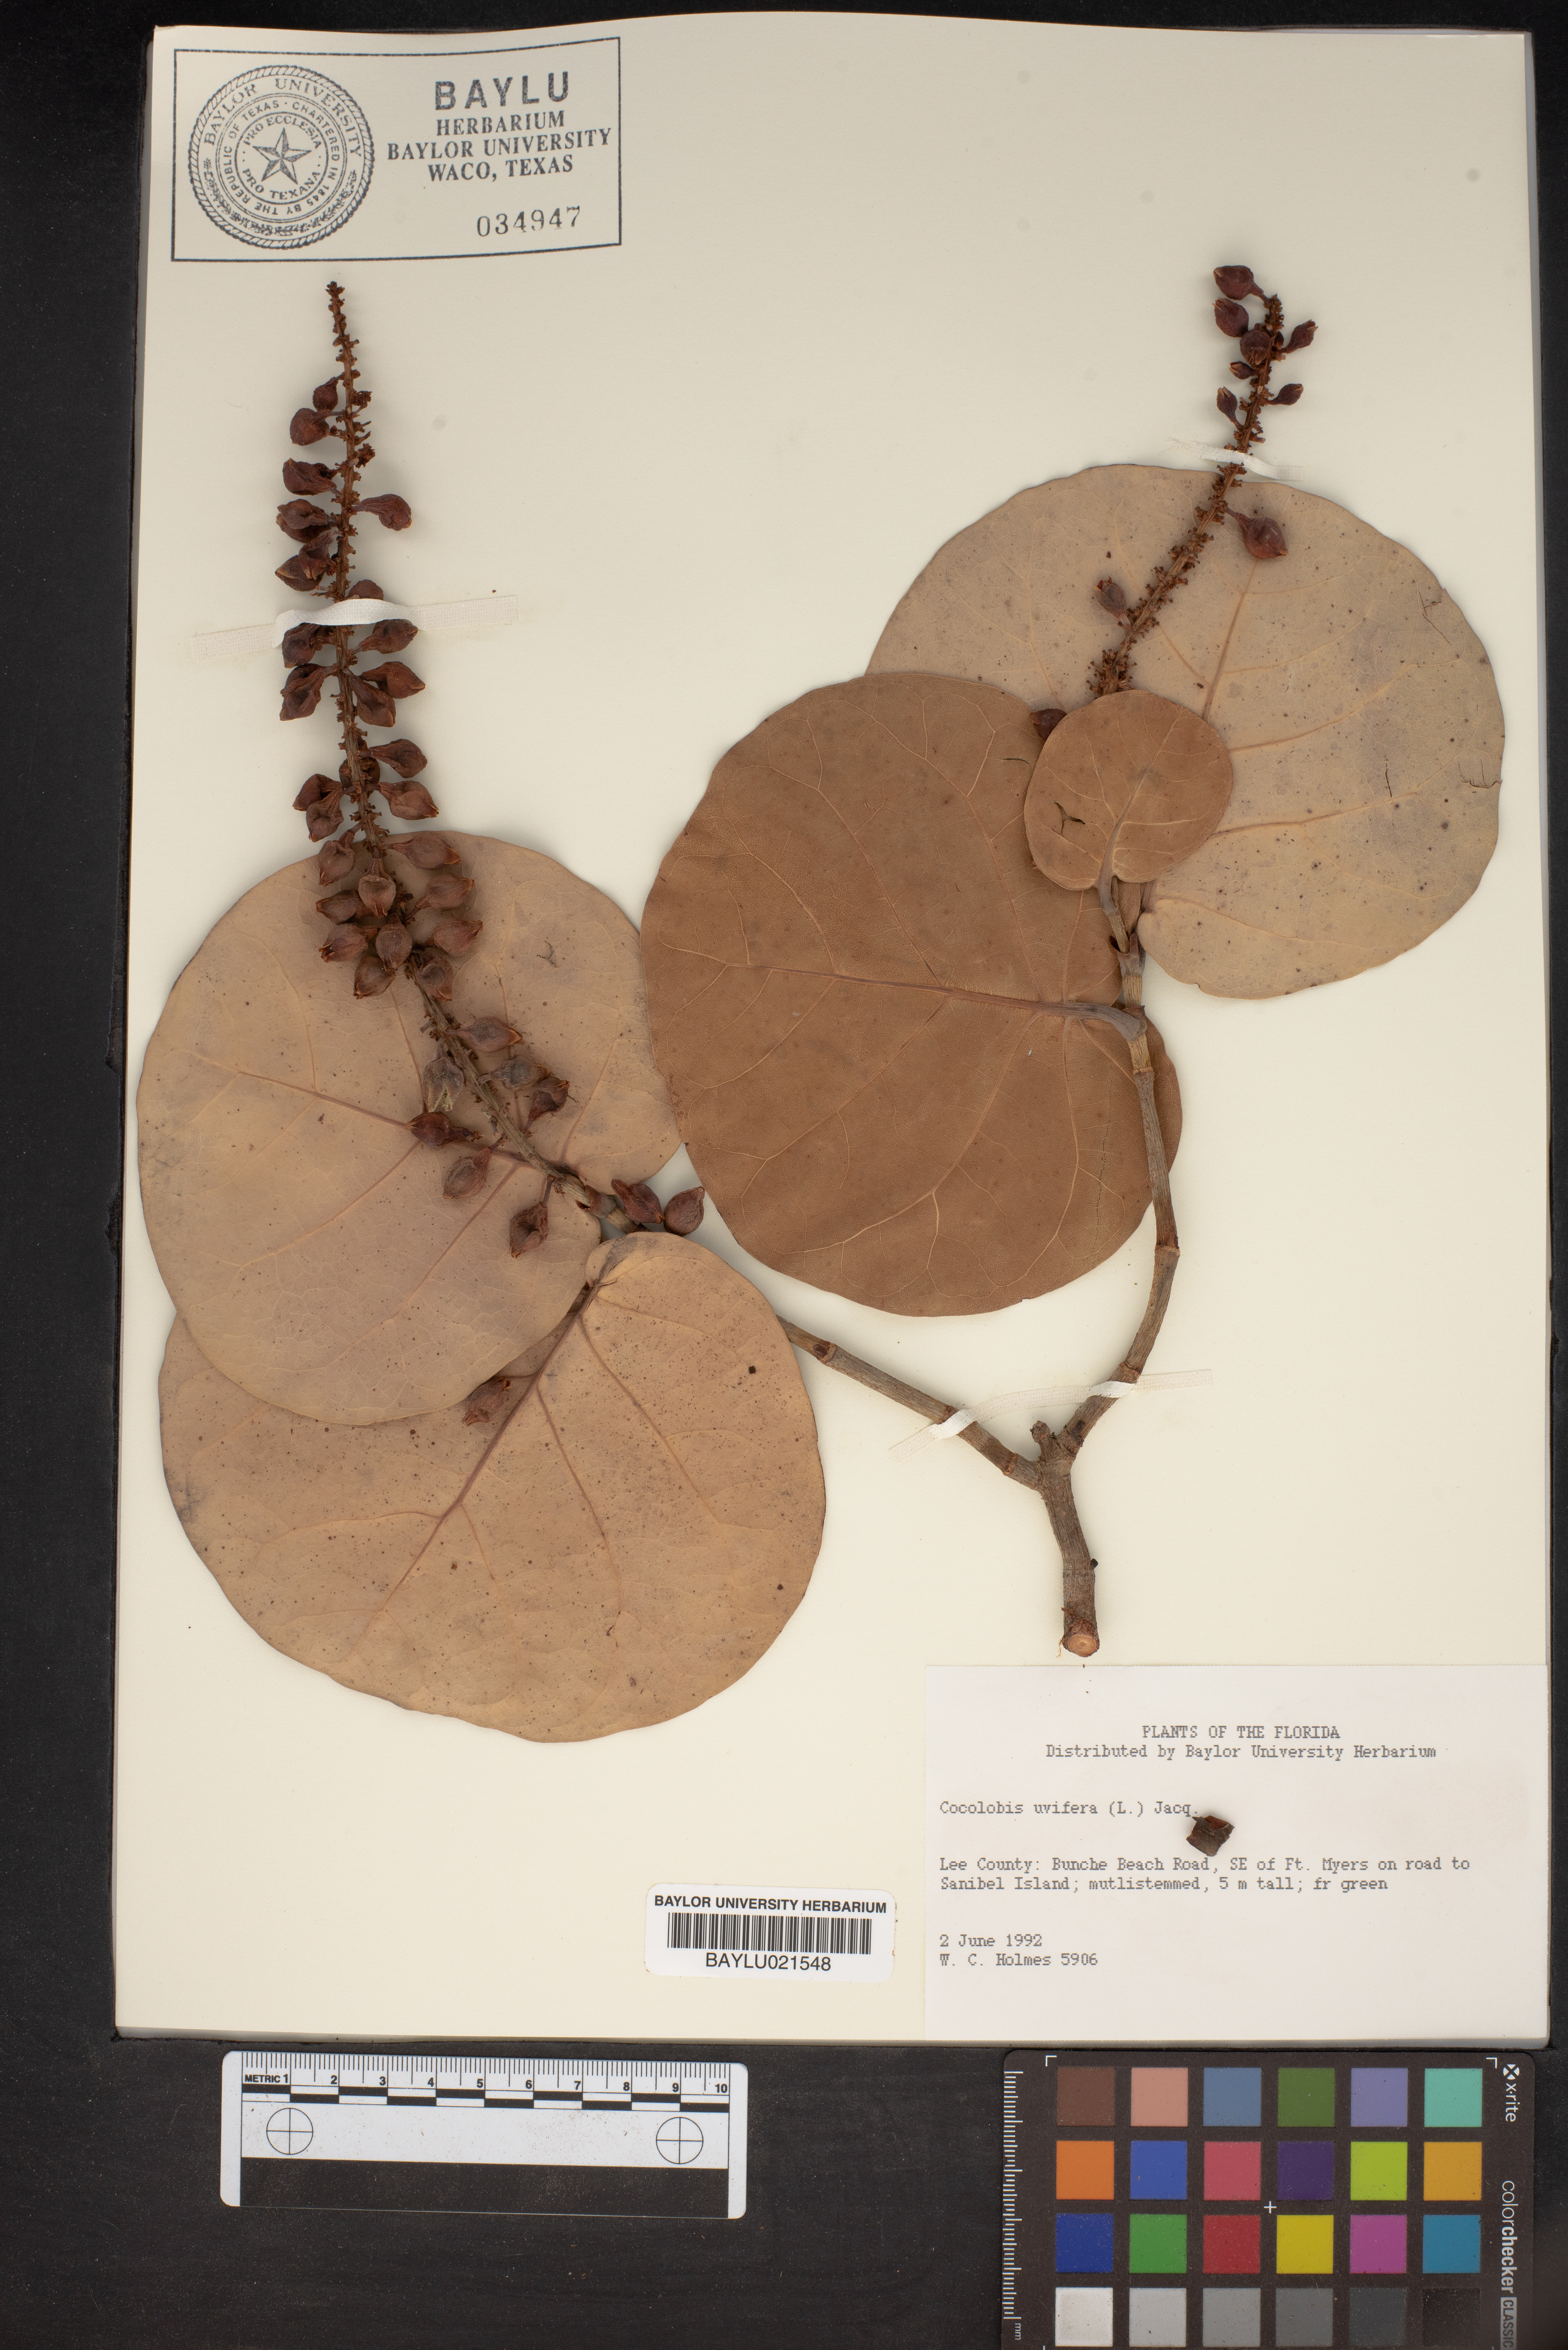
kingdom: Plantae
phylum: Tracheophyta
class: Magnoliopsida
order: Caryophyllales
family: Polygonaceae
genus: Coccoloba
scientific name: Coccoloba uvifera
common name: Seagrape
